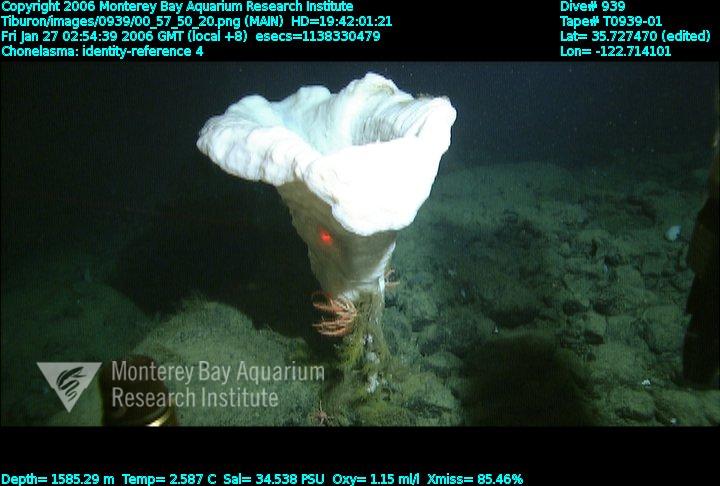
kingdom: Animalia
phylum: Porifera
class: Hexactinellida
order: Sceptrulophora
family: Euretidae
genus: Chonelasma
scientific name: Chonelasma
